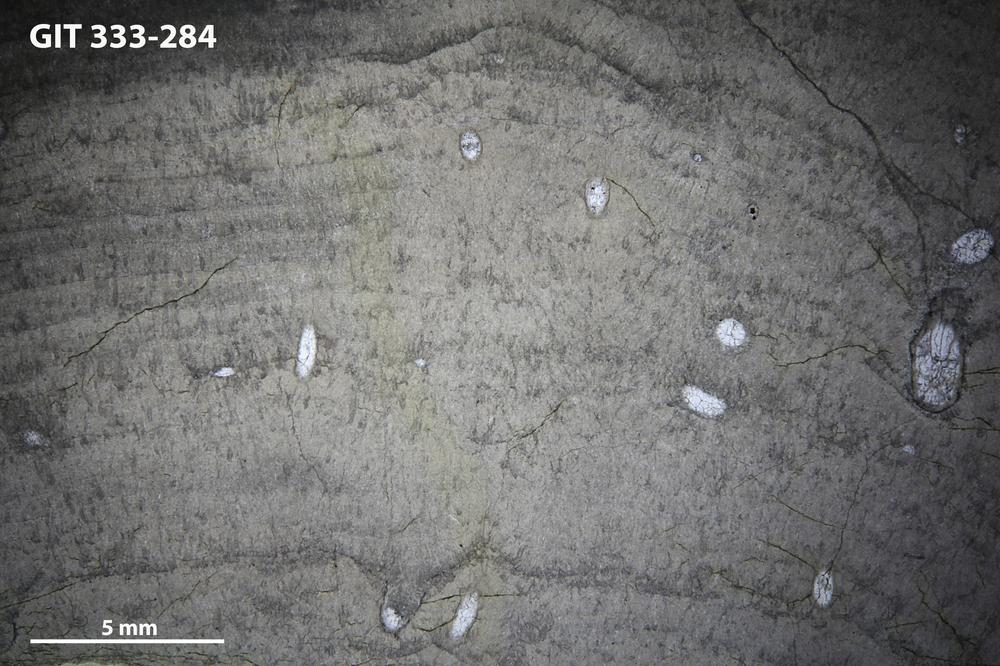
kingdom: Animalia
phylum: Porifera
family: Densastromatidae
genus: Densastroma
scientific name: Densastroma Actinostroma pexisum
